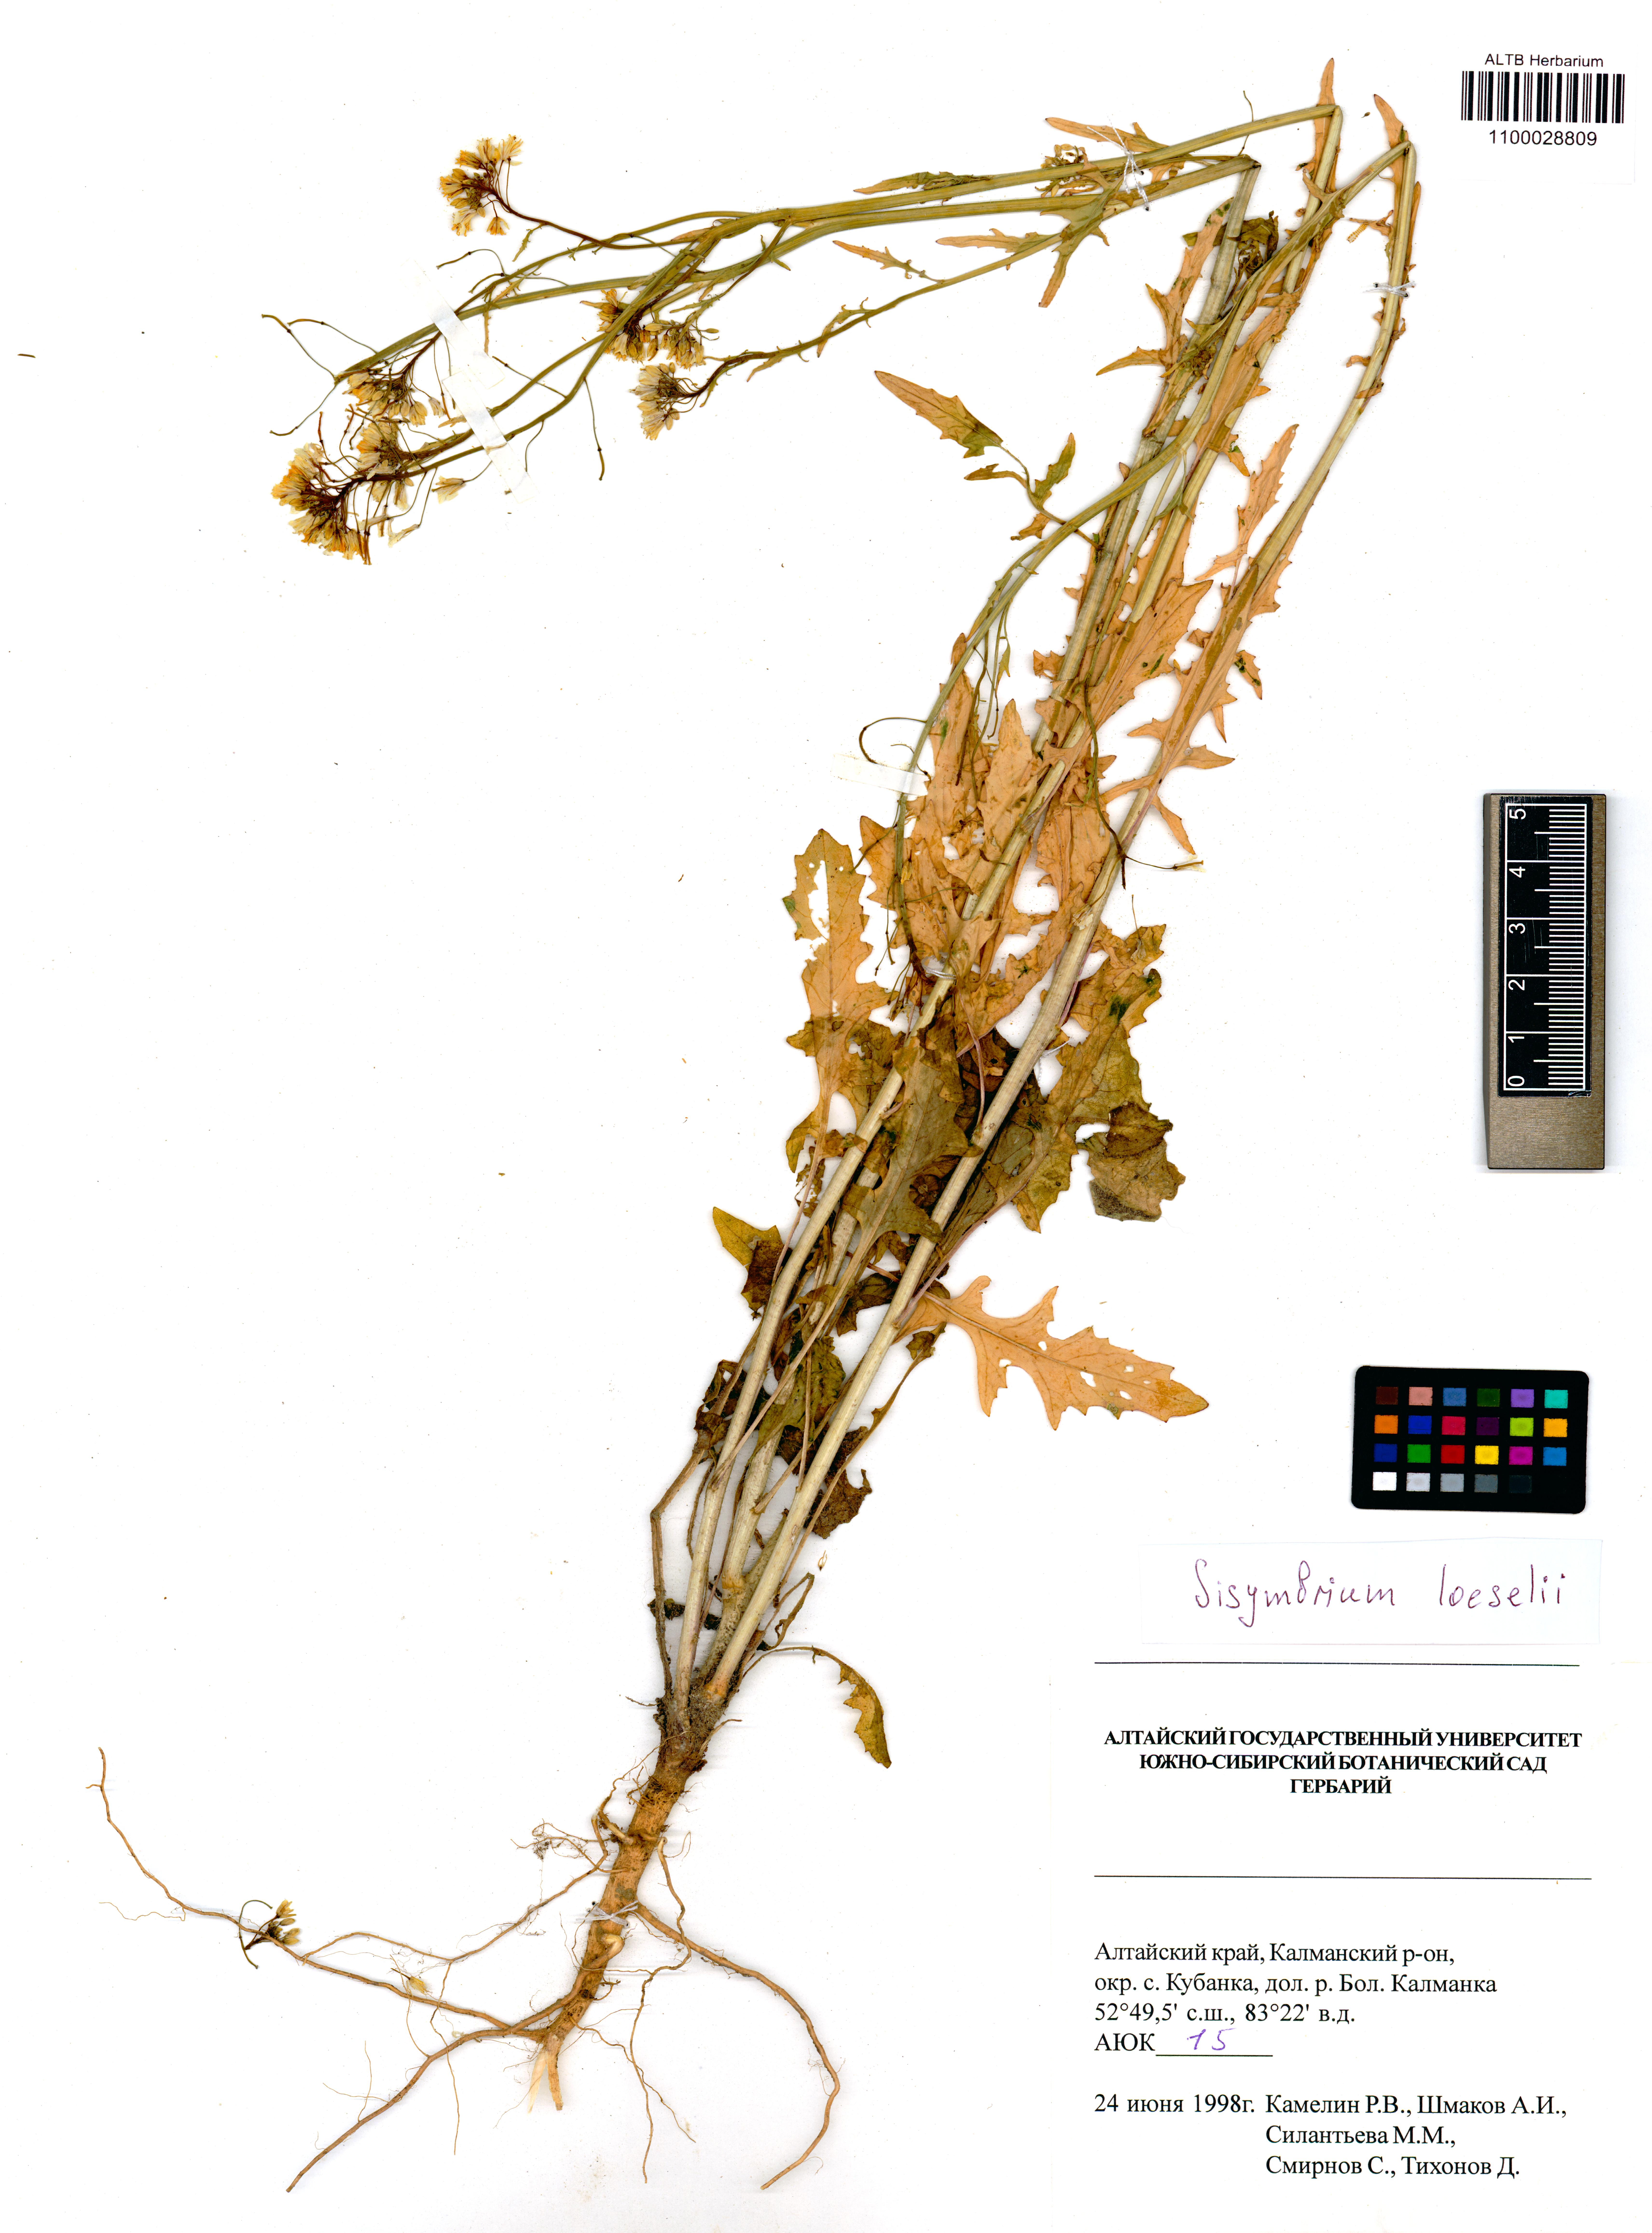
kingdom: Plantae
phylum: Tracheophyta
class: Magnoliopsida
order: Brassicales
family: Brassicaceae
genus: Sisymbrium
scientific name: Sisymbrium loeselii
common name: False london-rocket
